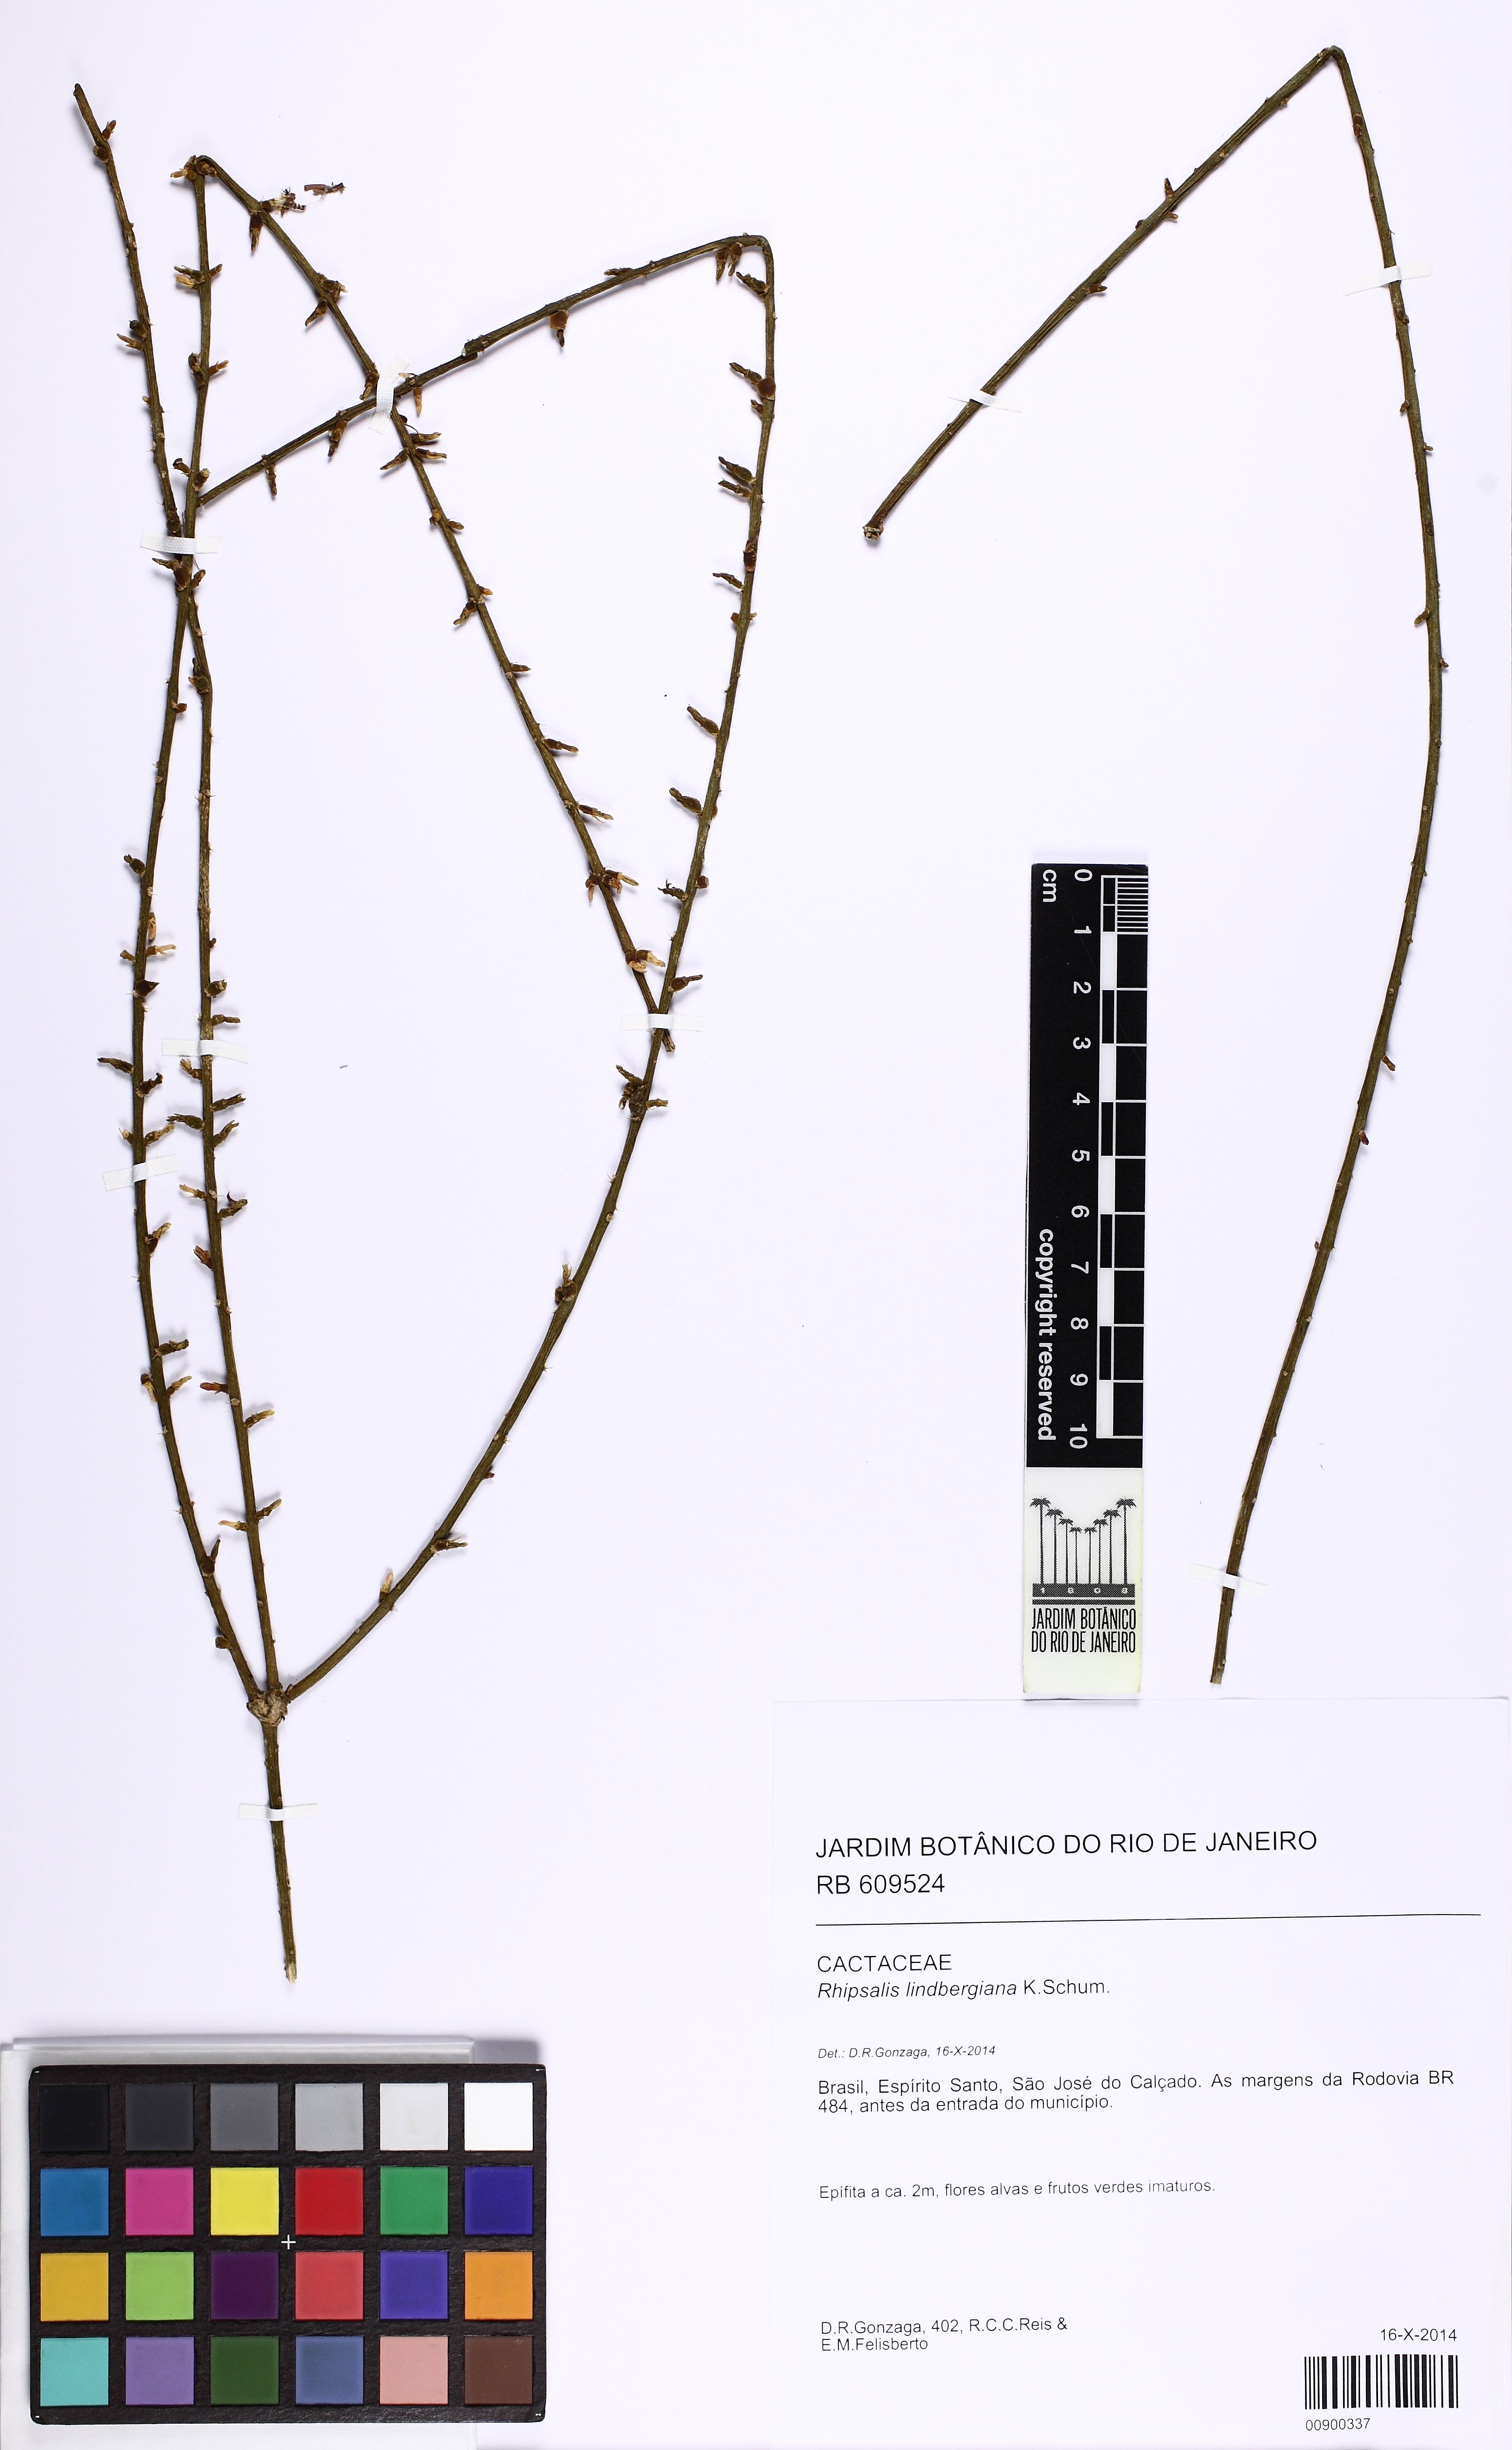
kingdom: Plantae
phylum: Tracheophyta
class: Magnoliopsida
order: Caryophyllales
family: Cactaceae
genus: Rhipsalis
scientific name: Rhipsalis lindbergiana
